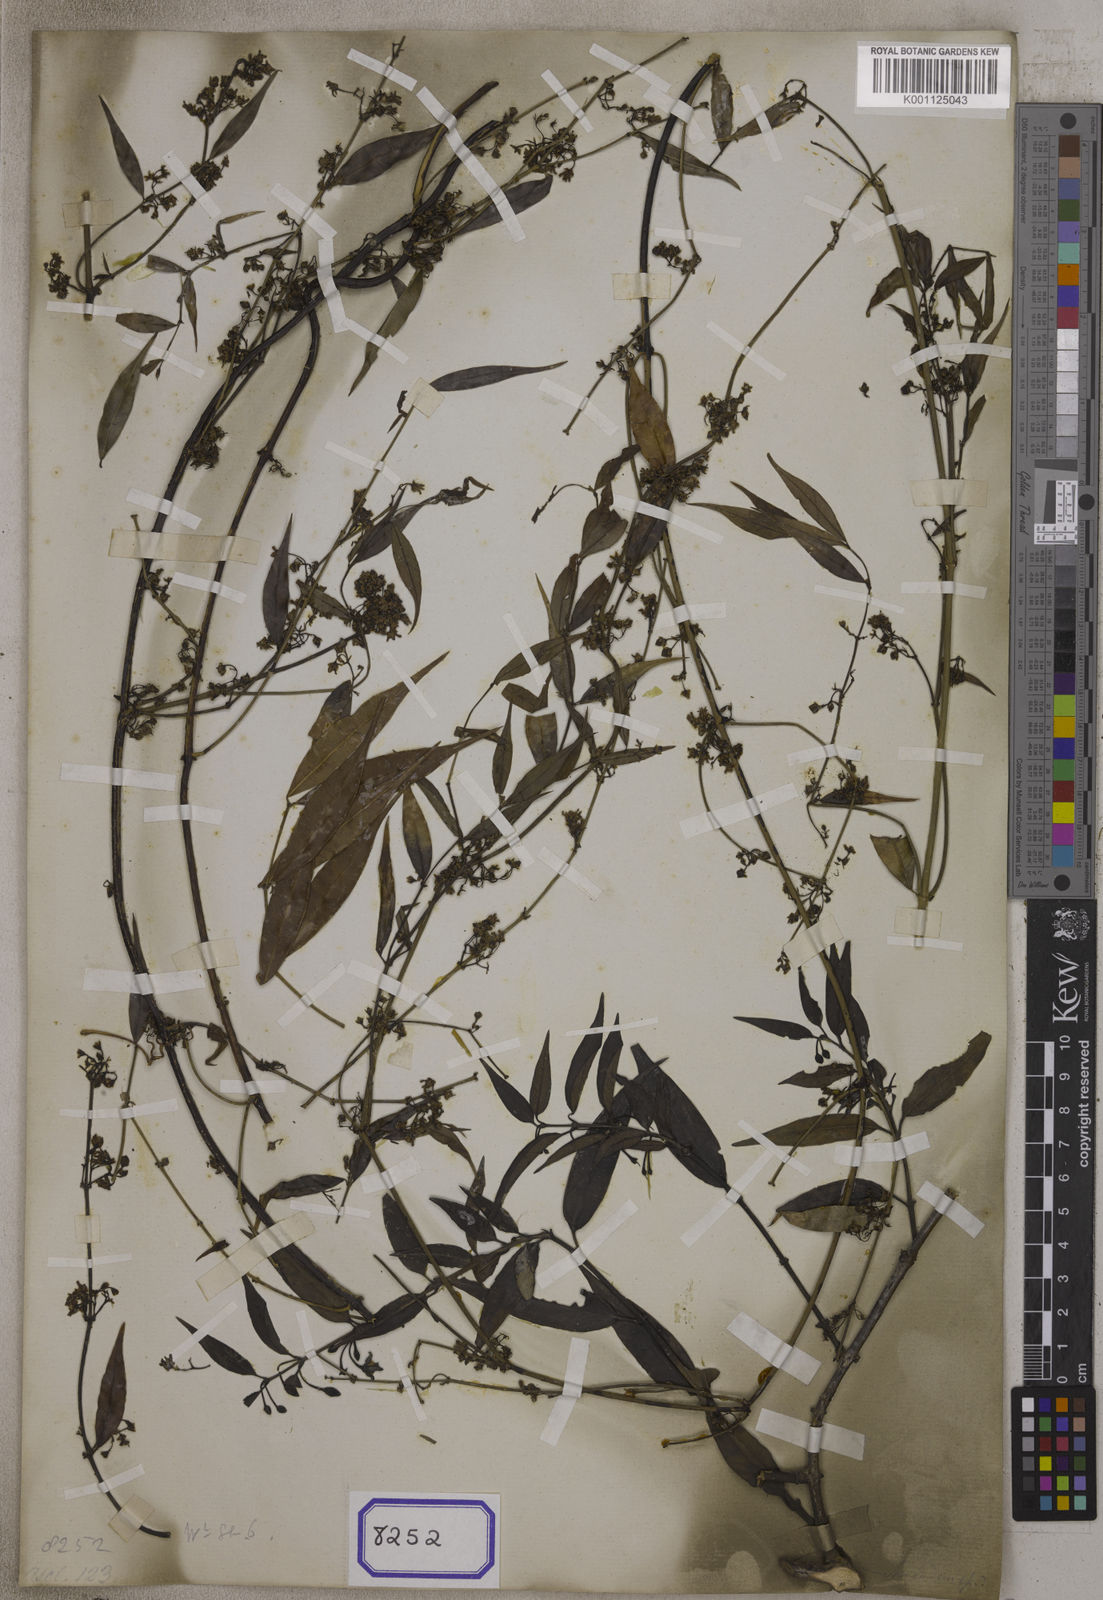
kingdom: Plantae
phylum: Tracheophyta
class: Magnoliopsida
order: Gentianales
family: Apocynaceae
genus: Periploca
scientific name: Periploca calophylla
